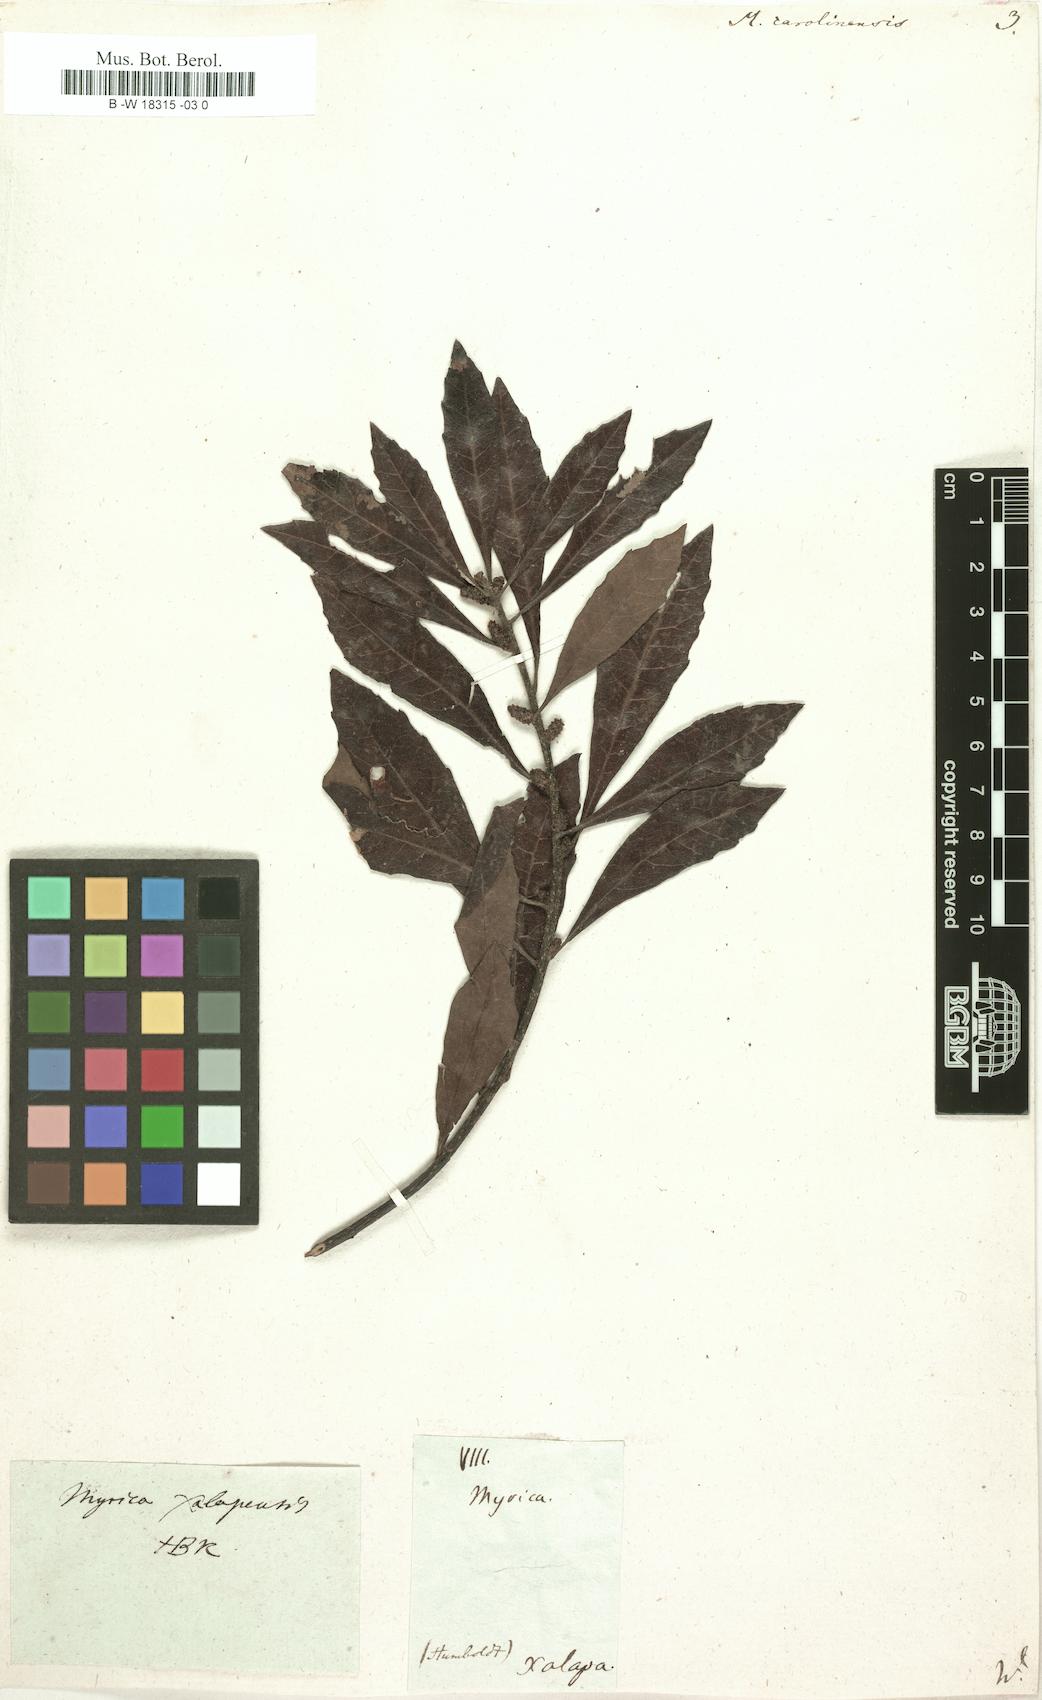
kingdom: Plantae
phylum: Tracheophyta
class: Magnoliopsida
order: Fagales
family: Myricaceae
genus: Morella
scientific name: Morella caroliniensis
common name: Evergreen bayberry
